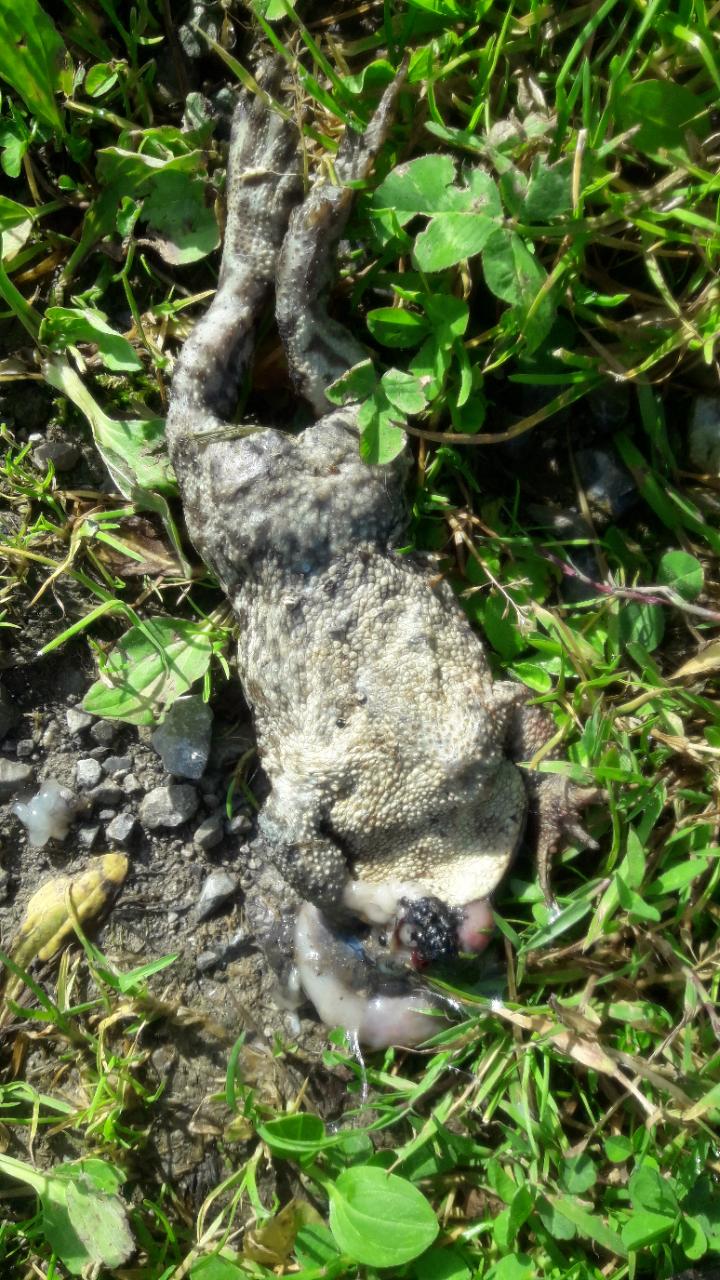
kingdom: Animalia
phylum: Chordata
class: Amphibia
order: Anura
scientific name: Anura
